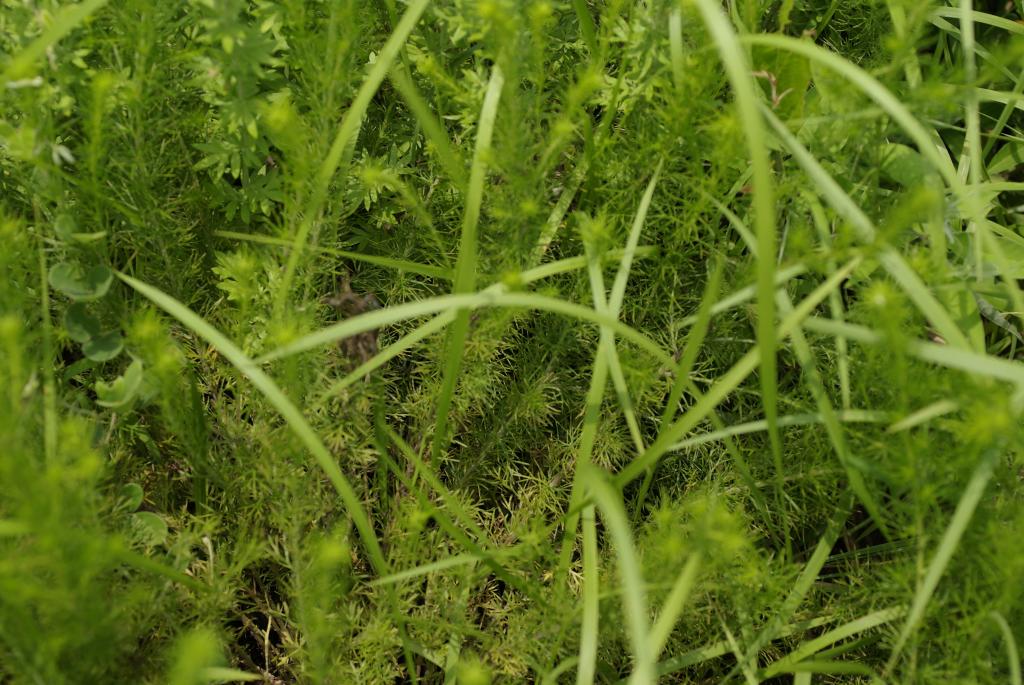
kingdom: Plantae
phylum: Tracheophyta
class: Magnoliopsida
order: Asterales
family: Asteraceae
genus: Artemisia
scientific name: Artemisia capillaris
